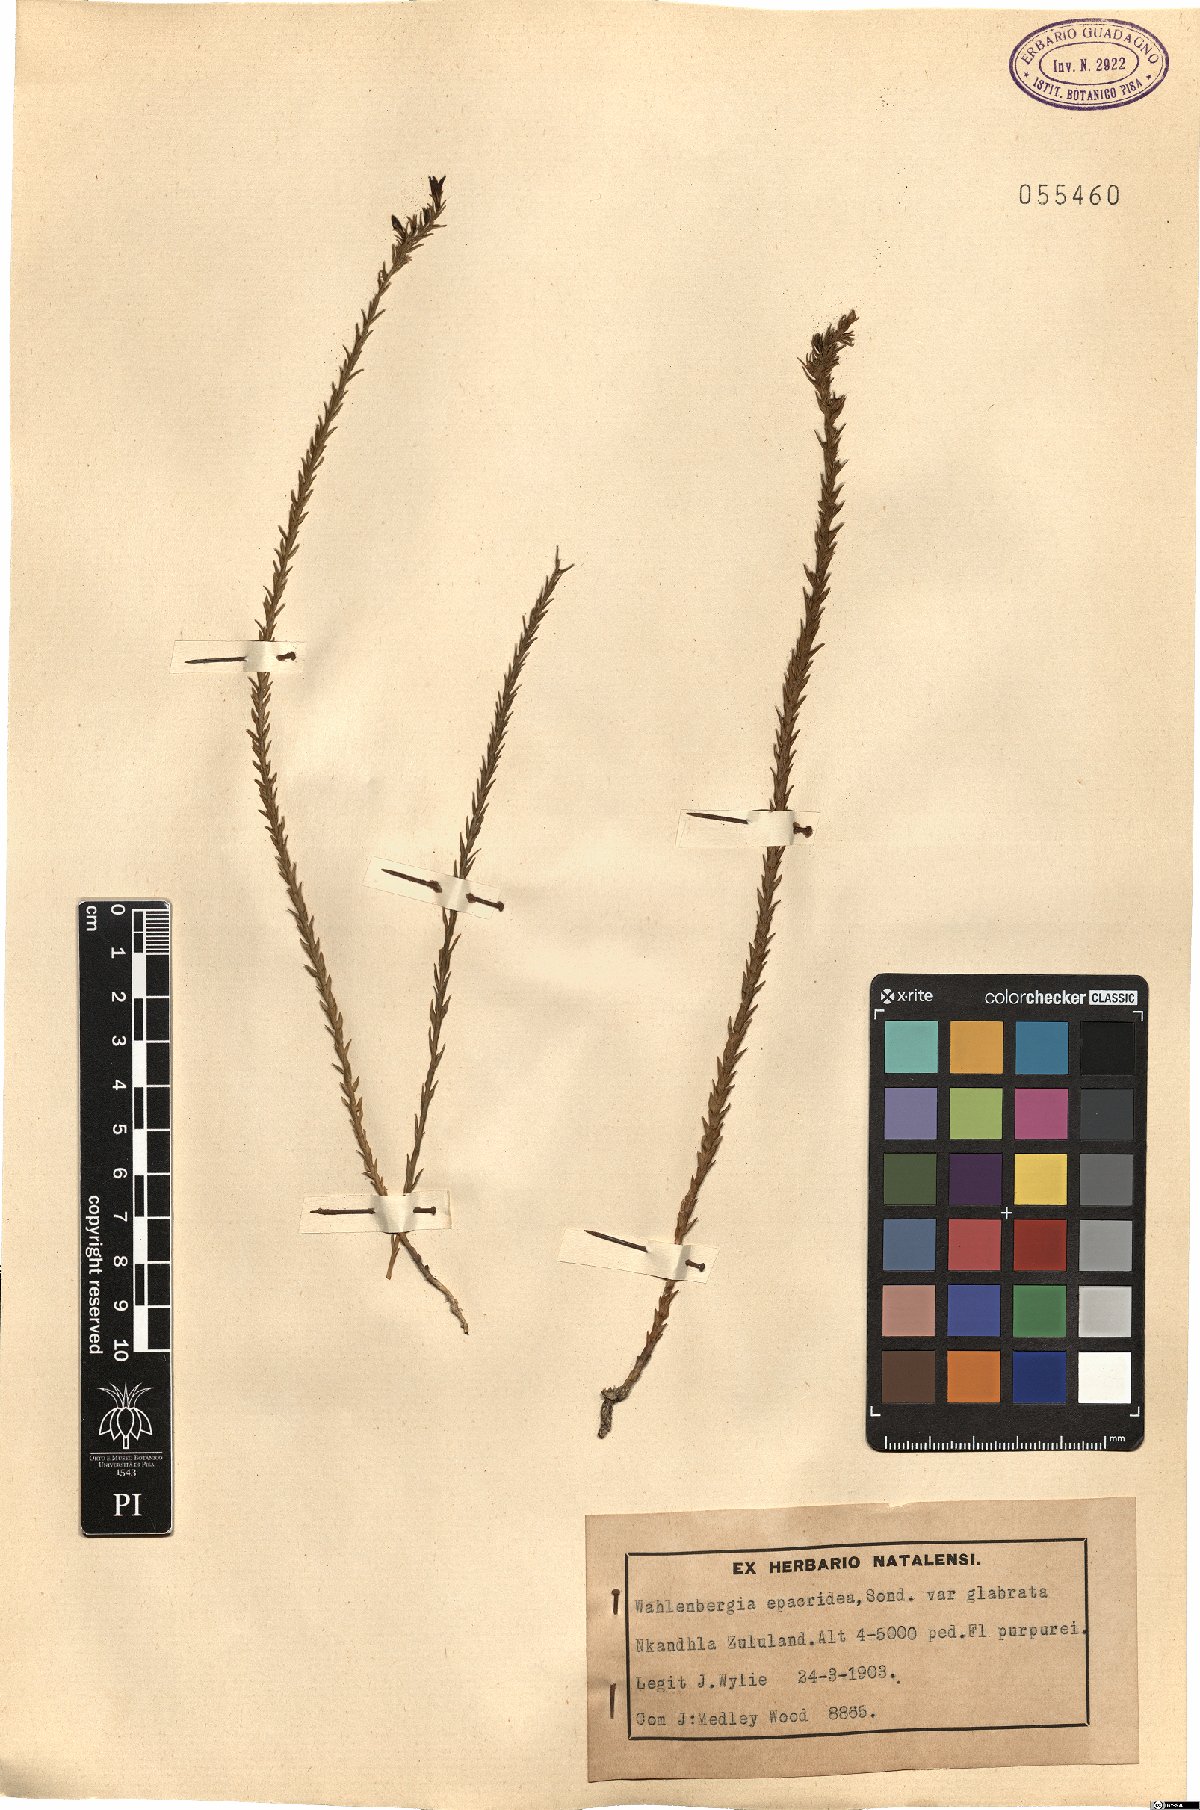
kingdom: Plantae
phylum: Tracheophyta
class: Magnoliopsida
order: Asterales
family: Campanulaceae
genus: Wahlenbergia
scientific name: Wahlenbergia epacridea
